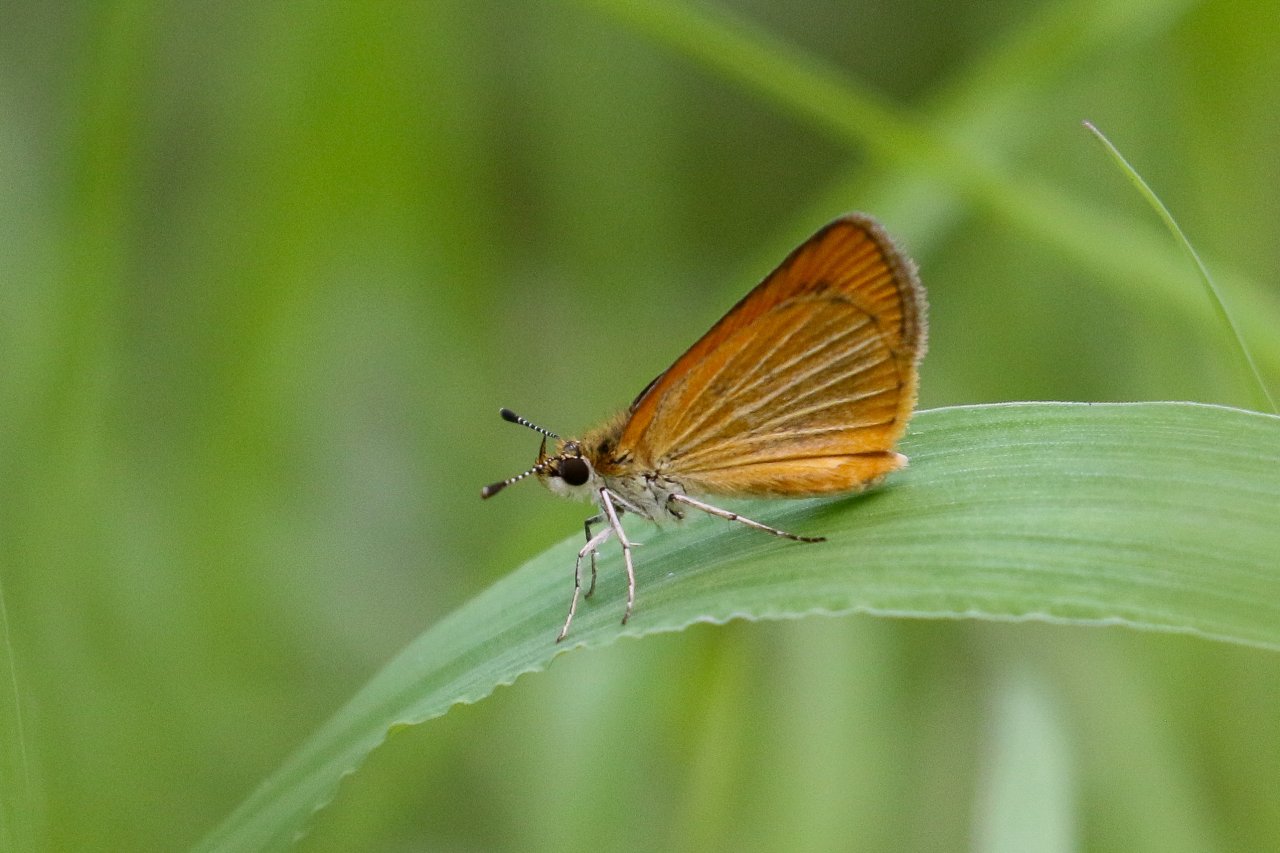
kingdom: Animalia
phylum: Arthropoda
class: Insecta
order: Lepidoptera
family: Hesperiidae
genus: Ancyloxypha
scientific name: Ancyloxypha numitor
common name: Least Skipper
